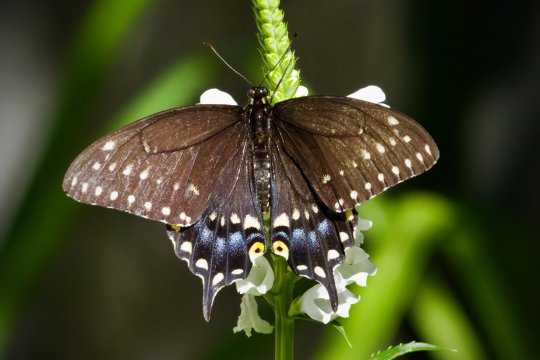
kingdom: Animalia
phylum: Arthropoda
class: Insecta
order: Lepidoptera
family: Papilionidae
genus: Papilio
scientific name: Papilio polyxenes
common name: Black Swallowtail
